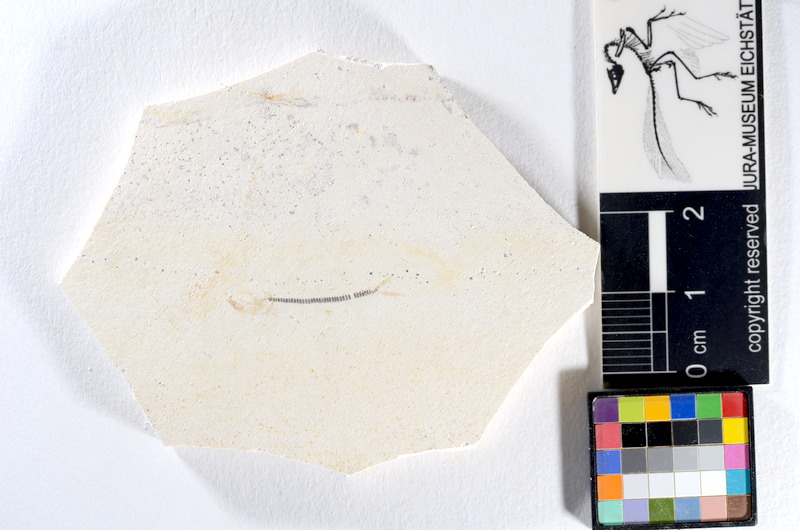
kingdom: Animalia
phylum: Chordata
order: Salmoniformes
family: Orthogonikleithridae
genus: Orthogonikleithrus
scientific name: Orthogonikleithrus hoelli
